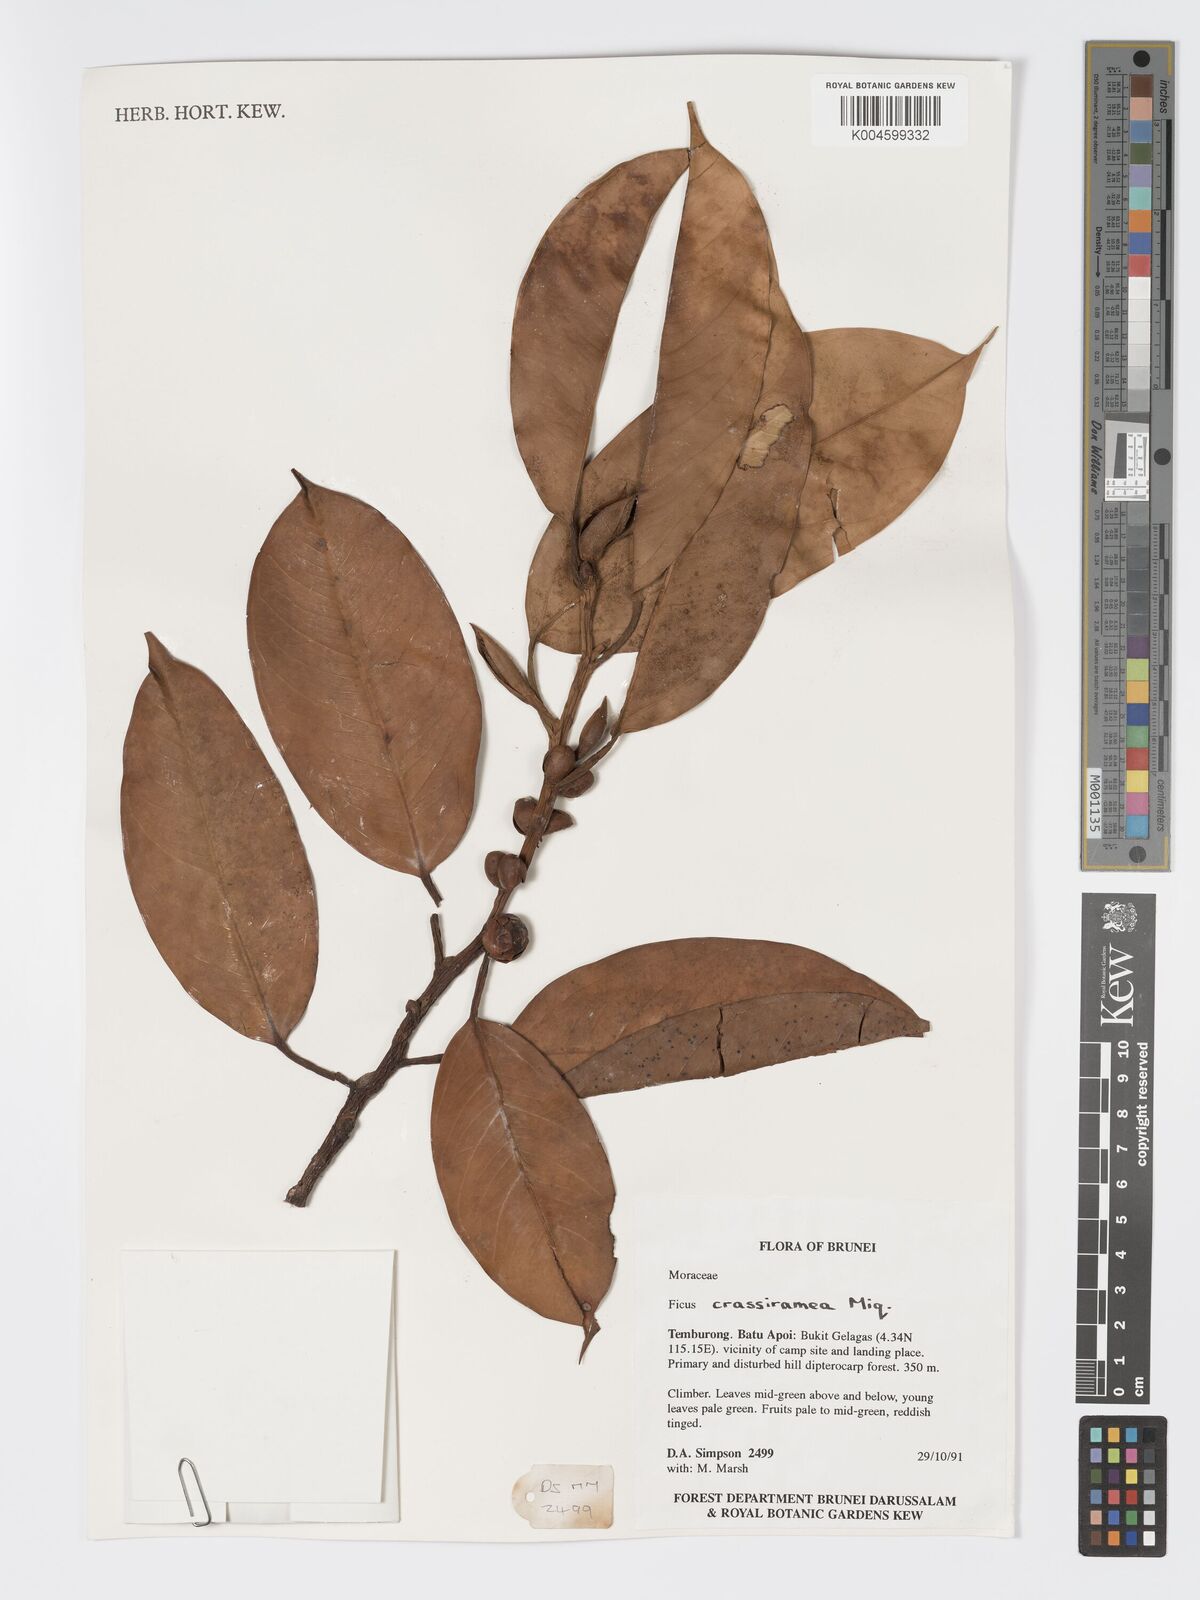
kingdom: Plantae
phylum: Tracheophyta
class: Magnoliopsida
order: Rosales
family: Moraceae
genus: Ficus
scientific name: Ficus crassiramea
